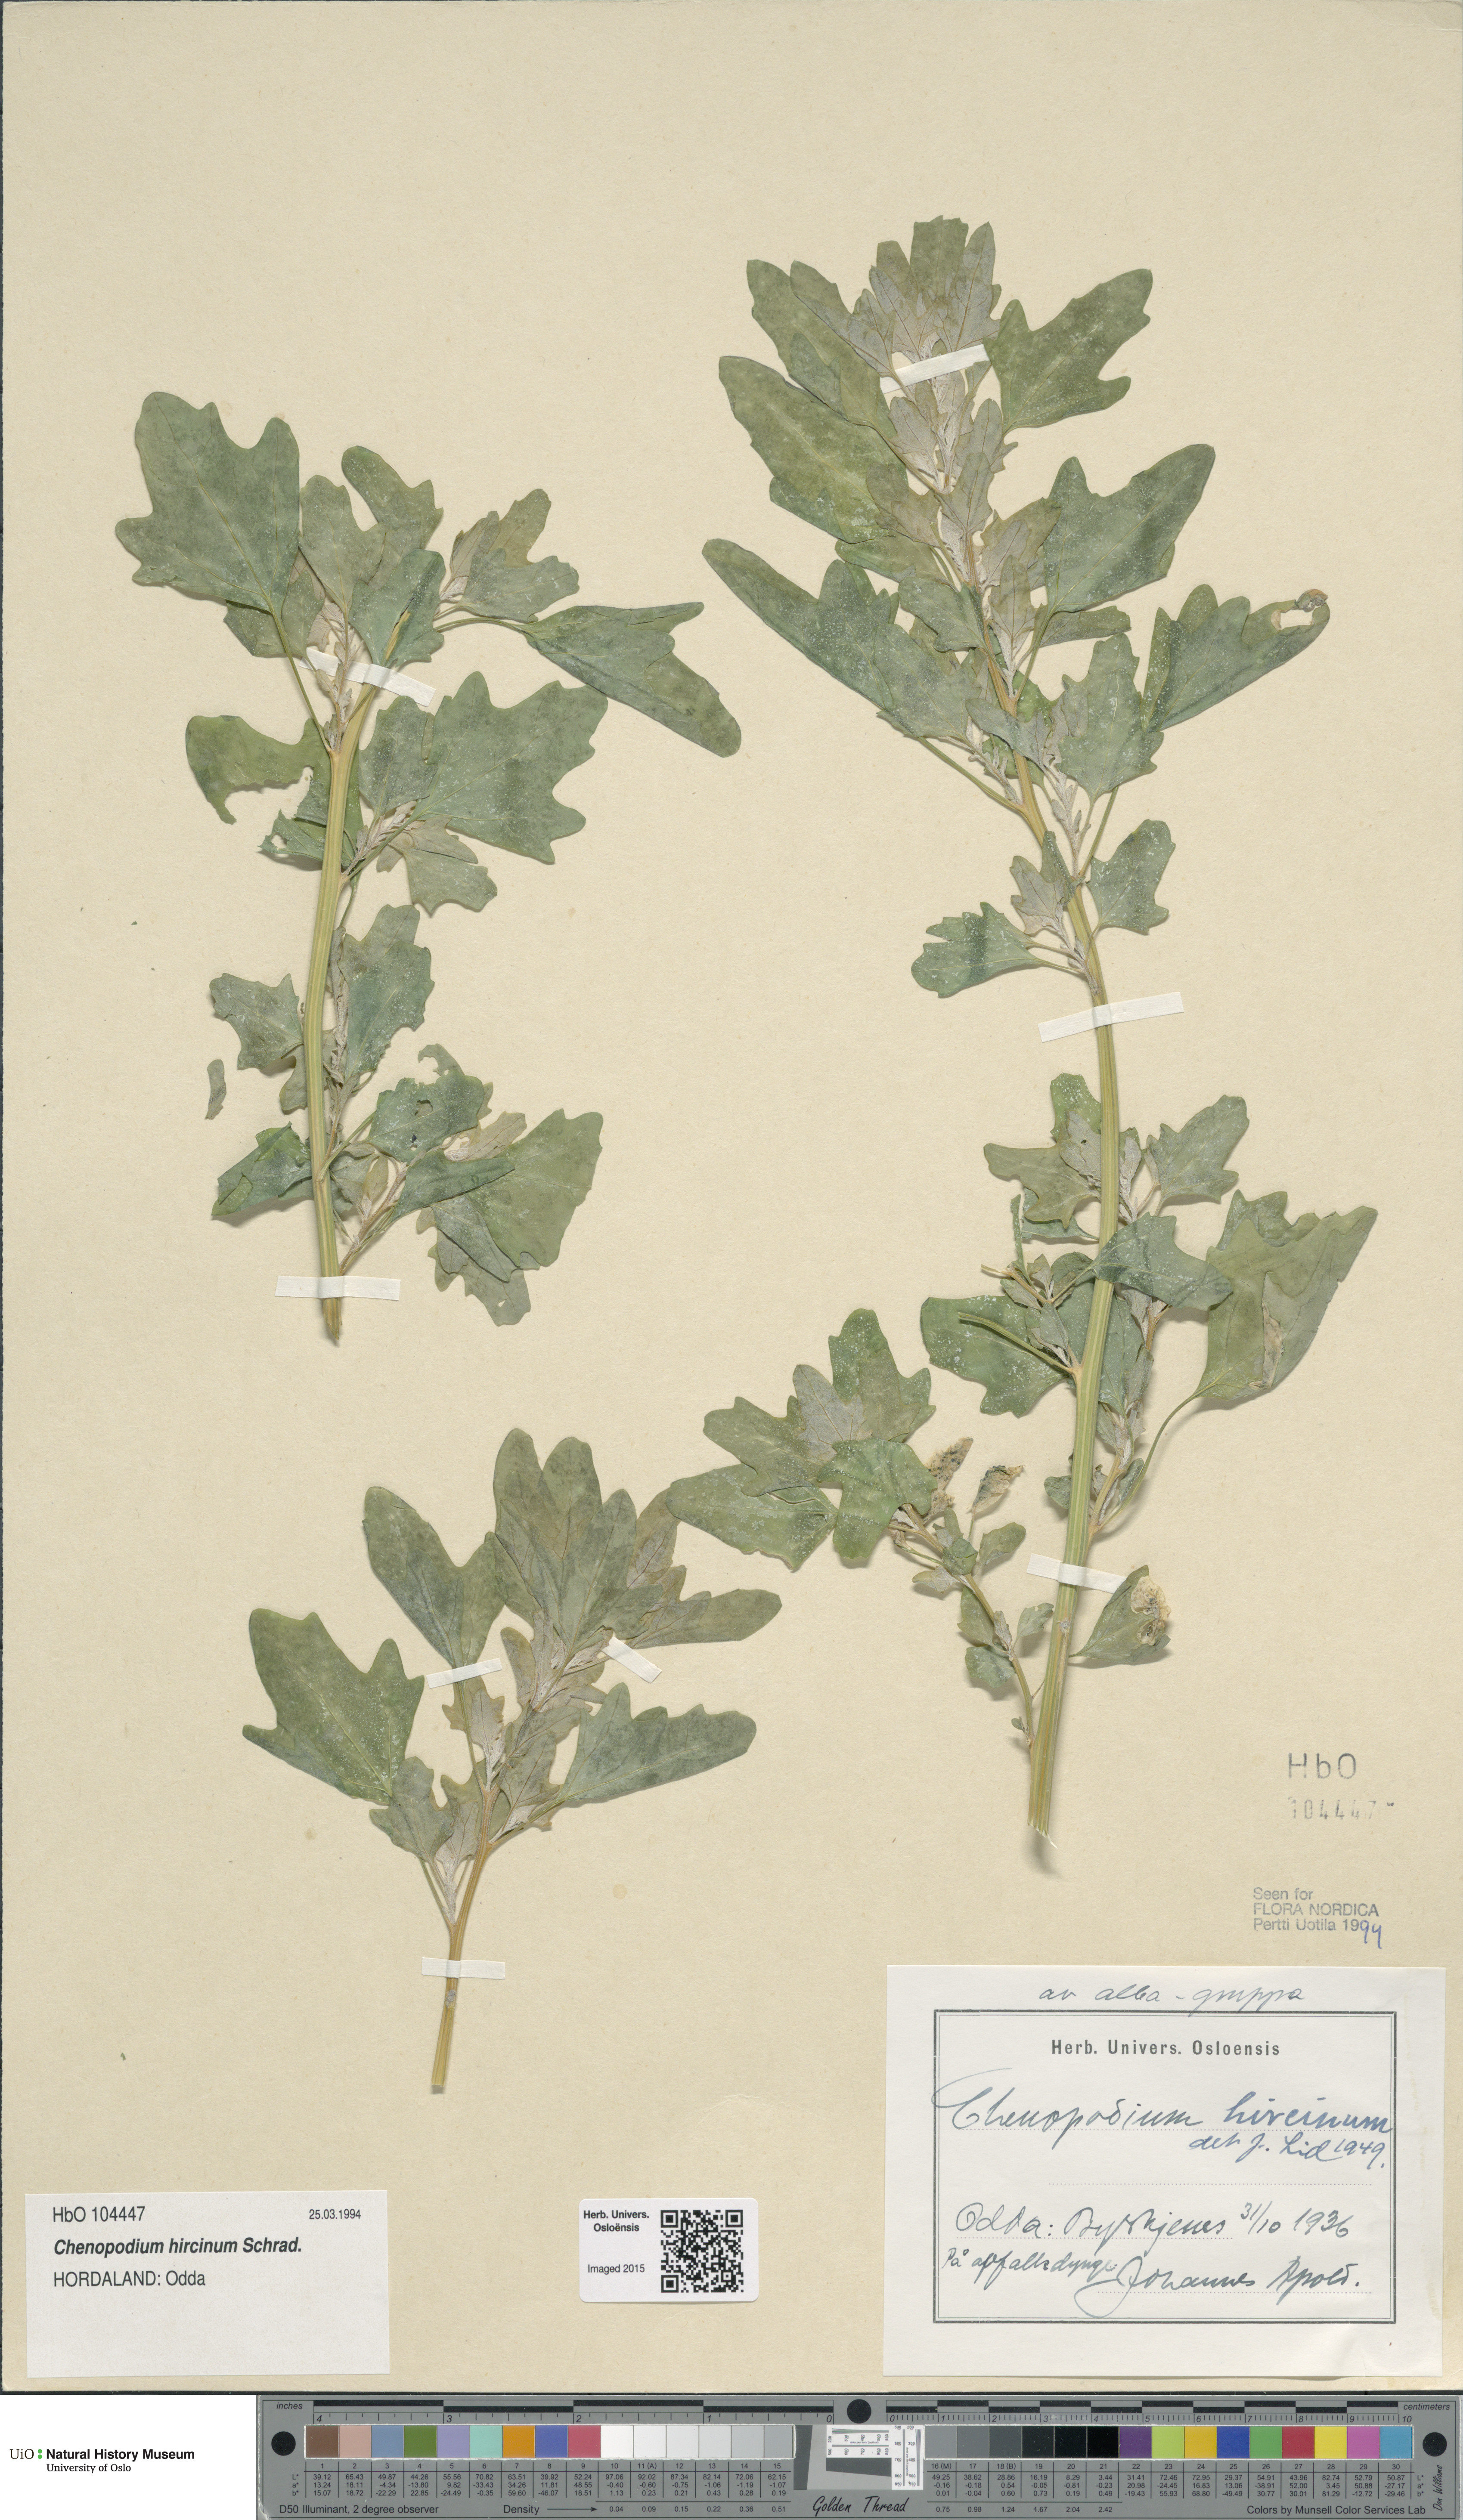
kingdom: Plantae
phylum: Tracheophyta
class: Magnoliopsida
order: Caryophyllales
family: Amaranthaceae
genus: Chenopodium
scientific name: Chenopodium hircinum
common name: Foetid goosefoot
